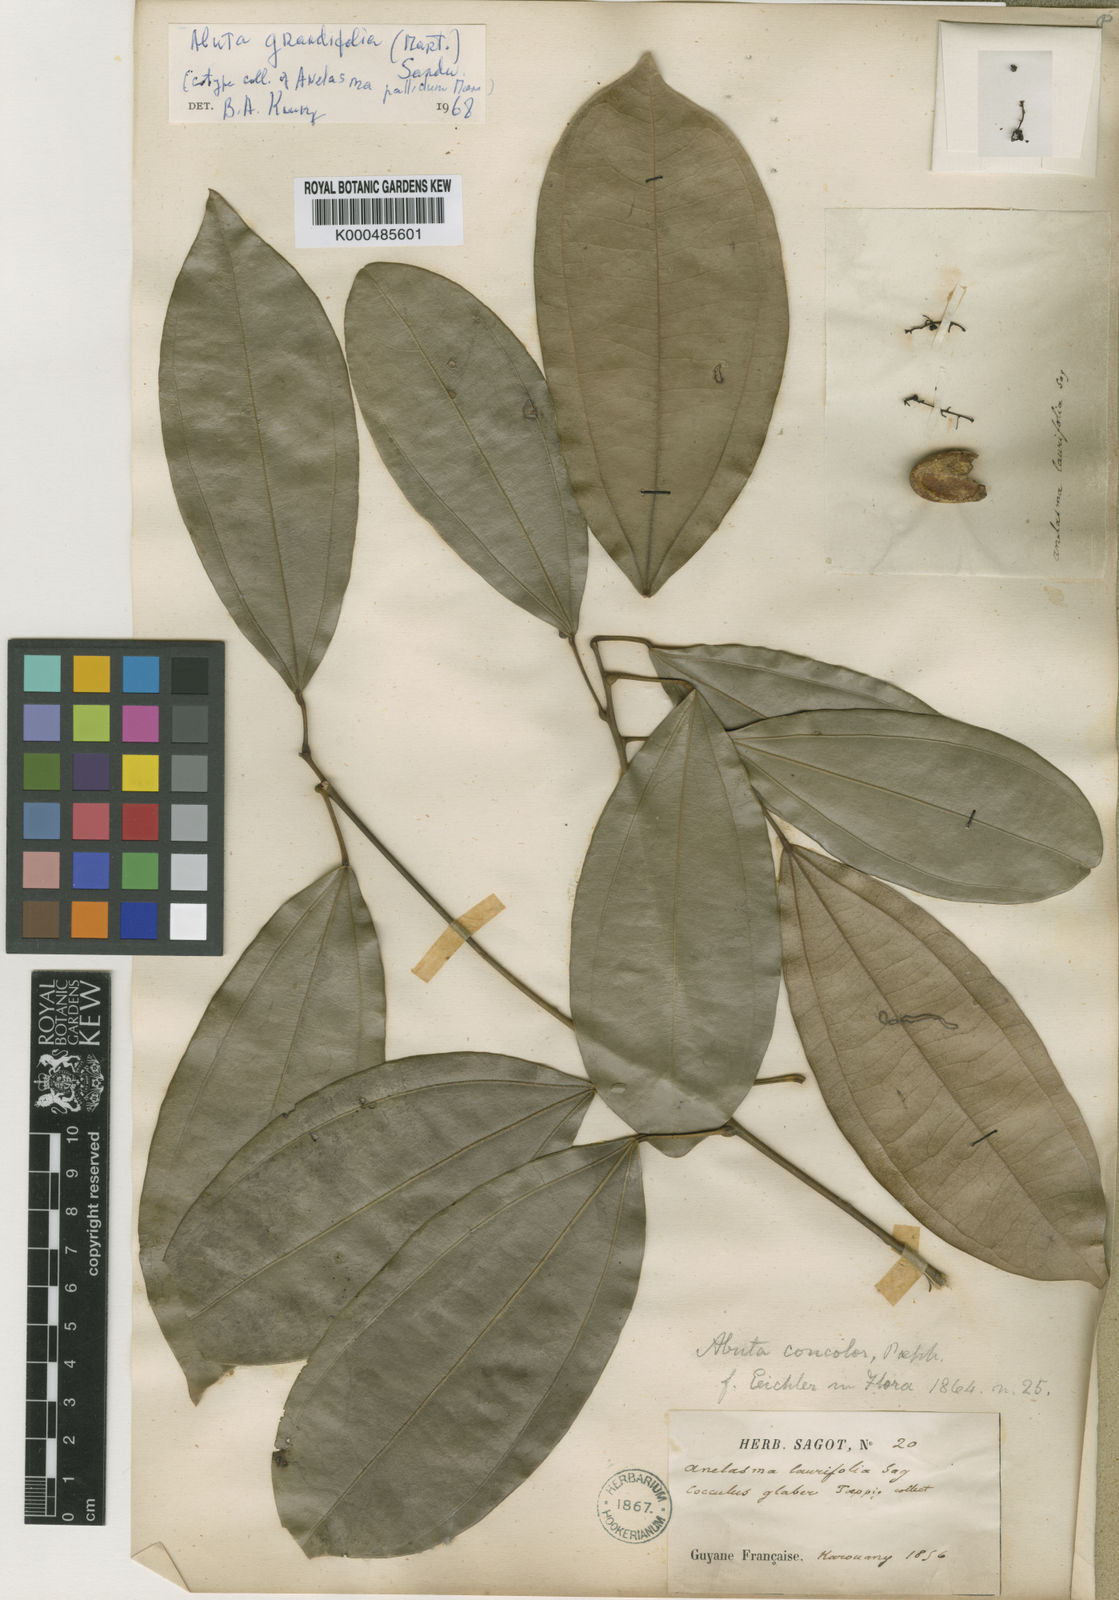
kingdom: Plantae
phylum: Tracheophyta
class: Magnoliopsida
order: Ranunculales
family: Menispermaceae
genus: Abuta
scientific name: Abuta grandifolia
